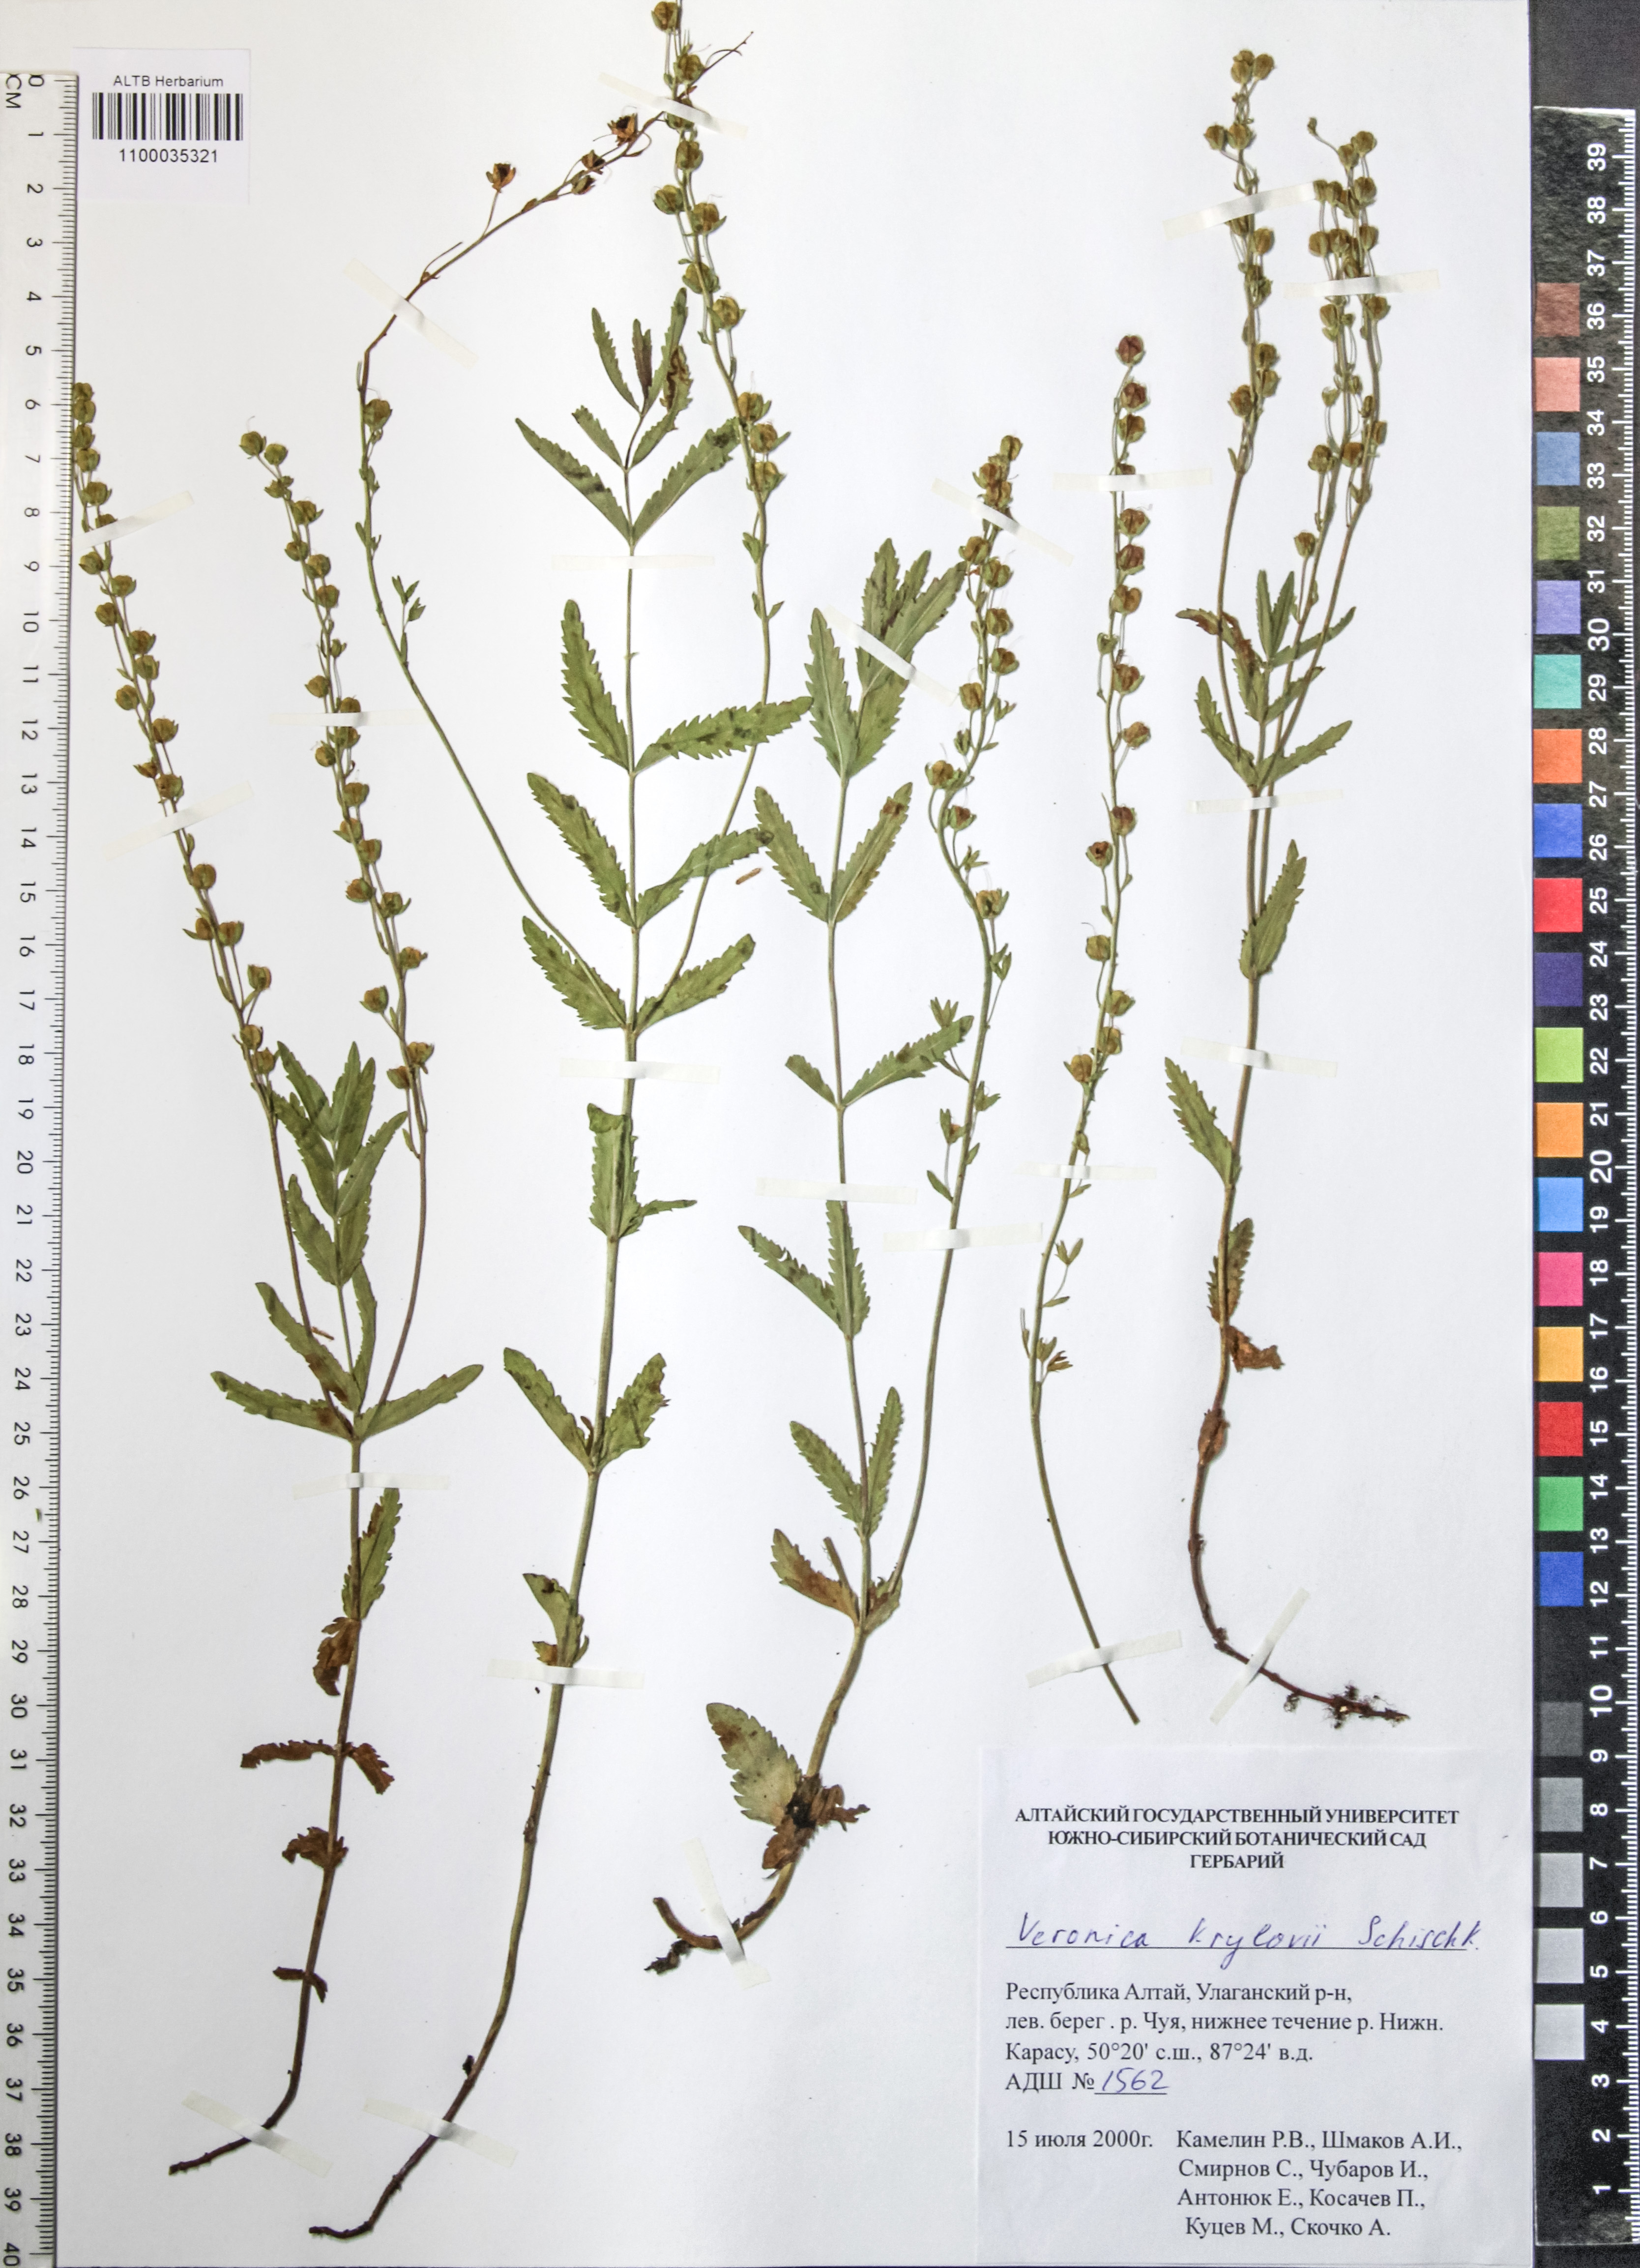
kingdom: Plantae
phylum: Tracheophyta
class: Magnoliopsida
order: Lamiales
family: Plantaginaceae
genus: Veronica
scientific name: Veronica krylovii
